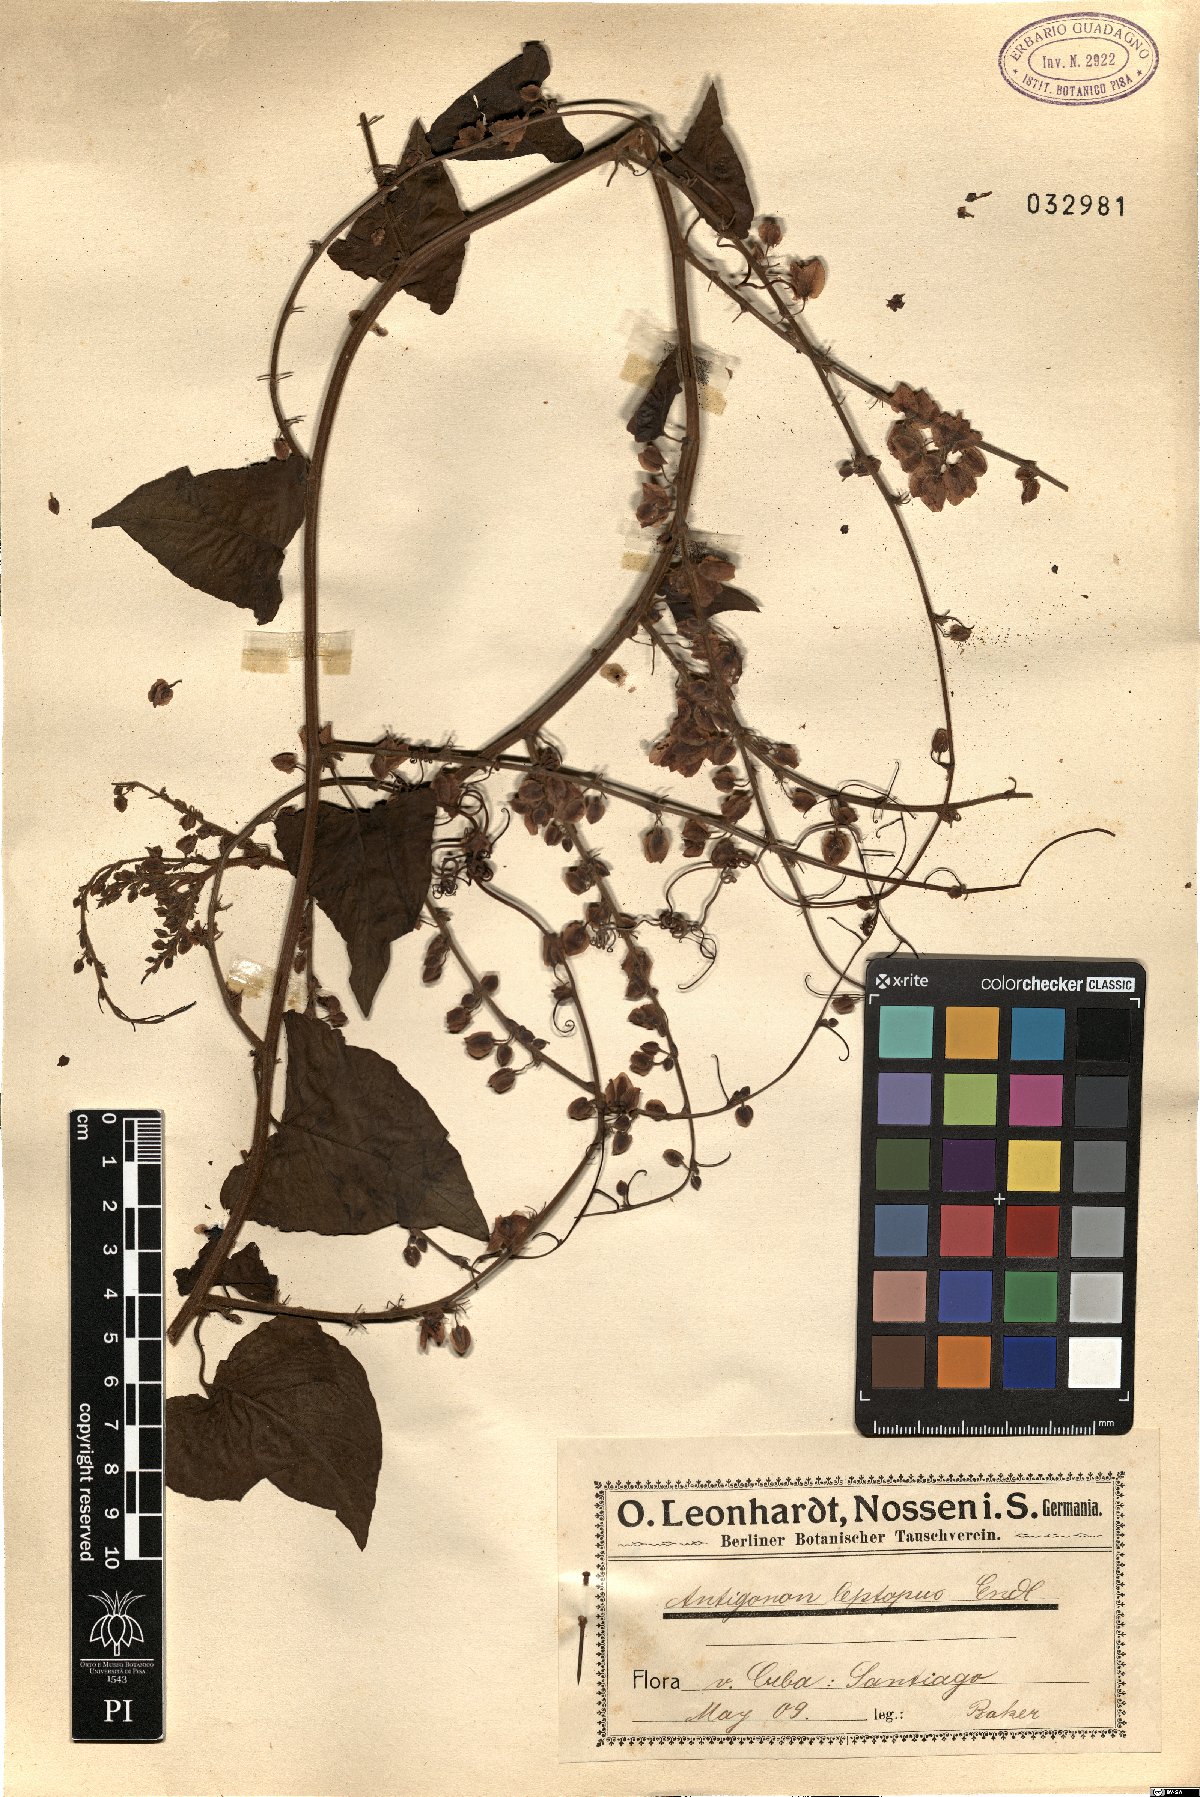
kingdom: Plantae
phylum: Tracheophyta
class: Magnoliopsida
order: Caryophyllales
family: Polygonaceae
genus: Antigonon
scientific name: Antigonon leptopus
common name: Coral vine
